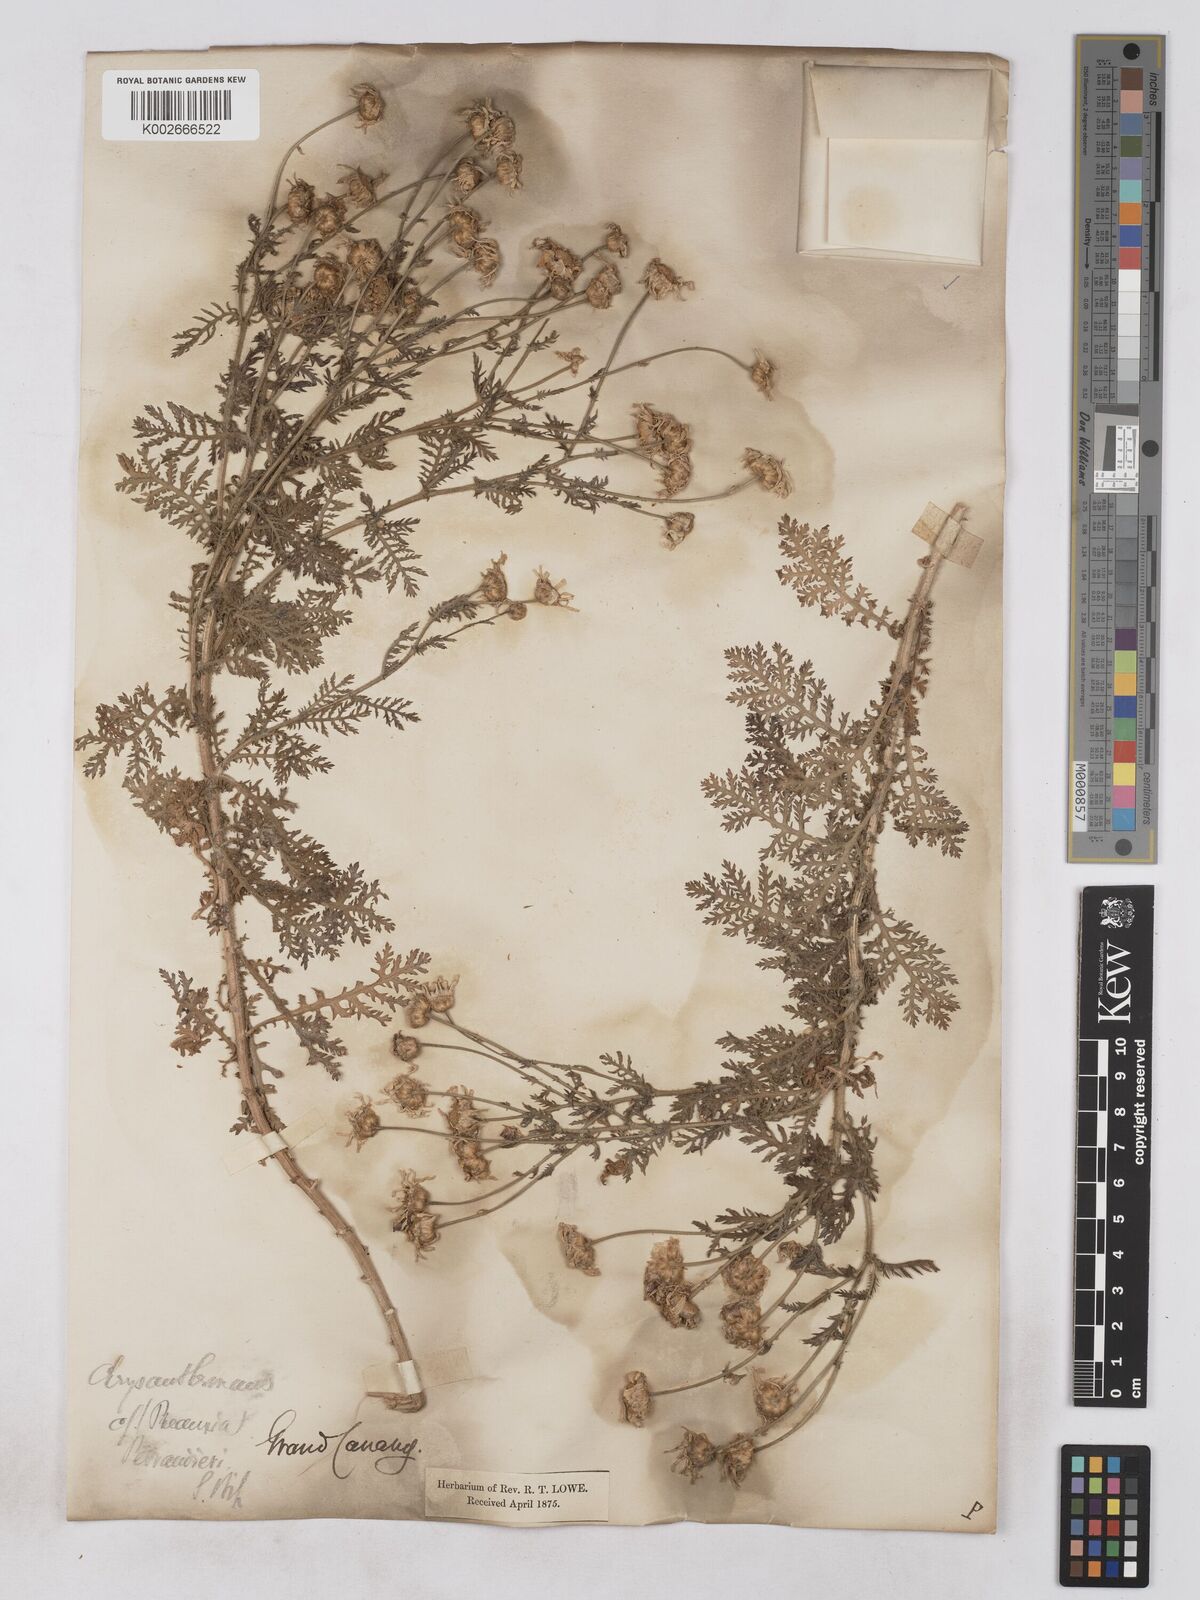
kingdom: Plantae
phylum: Tracheophyta
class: Magnoliopsida
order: Asterales
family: Asteraceae
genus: Argyranthemum
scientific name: Argyranthemum adauctum
